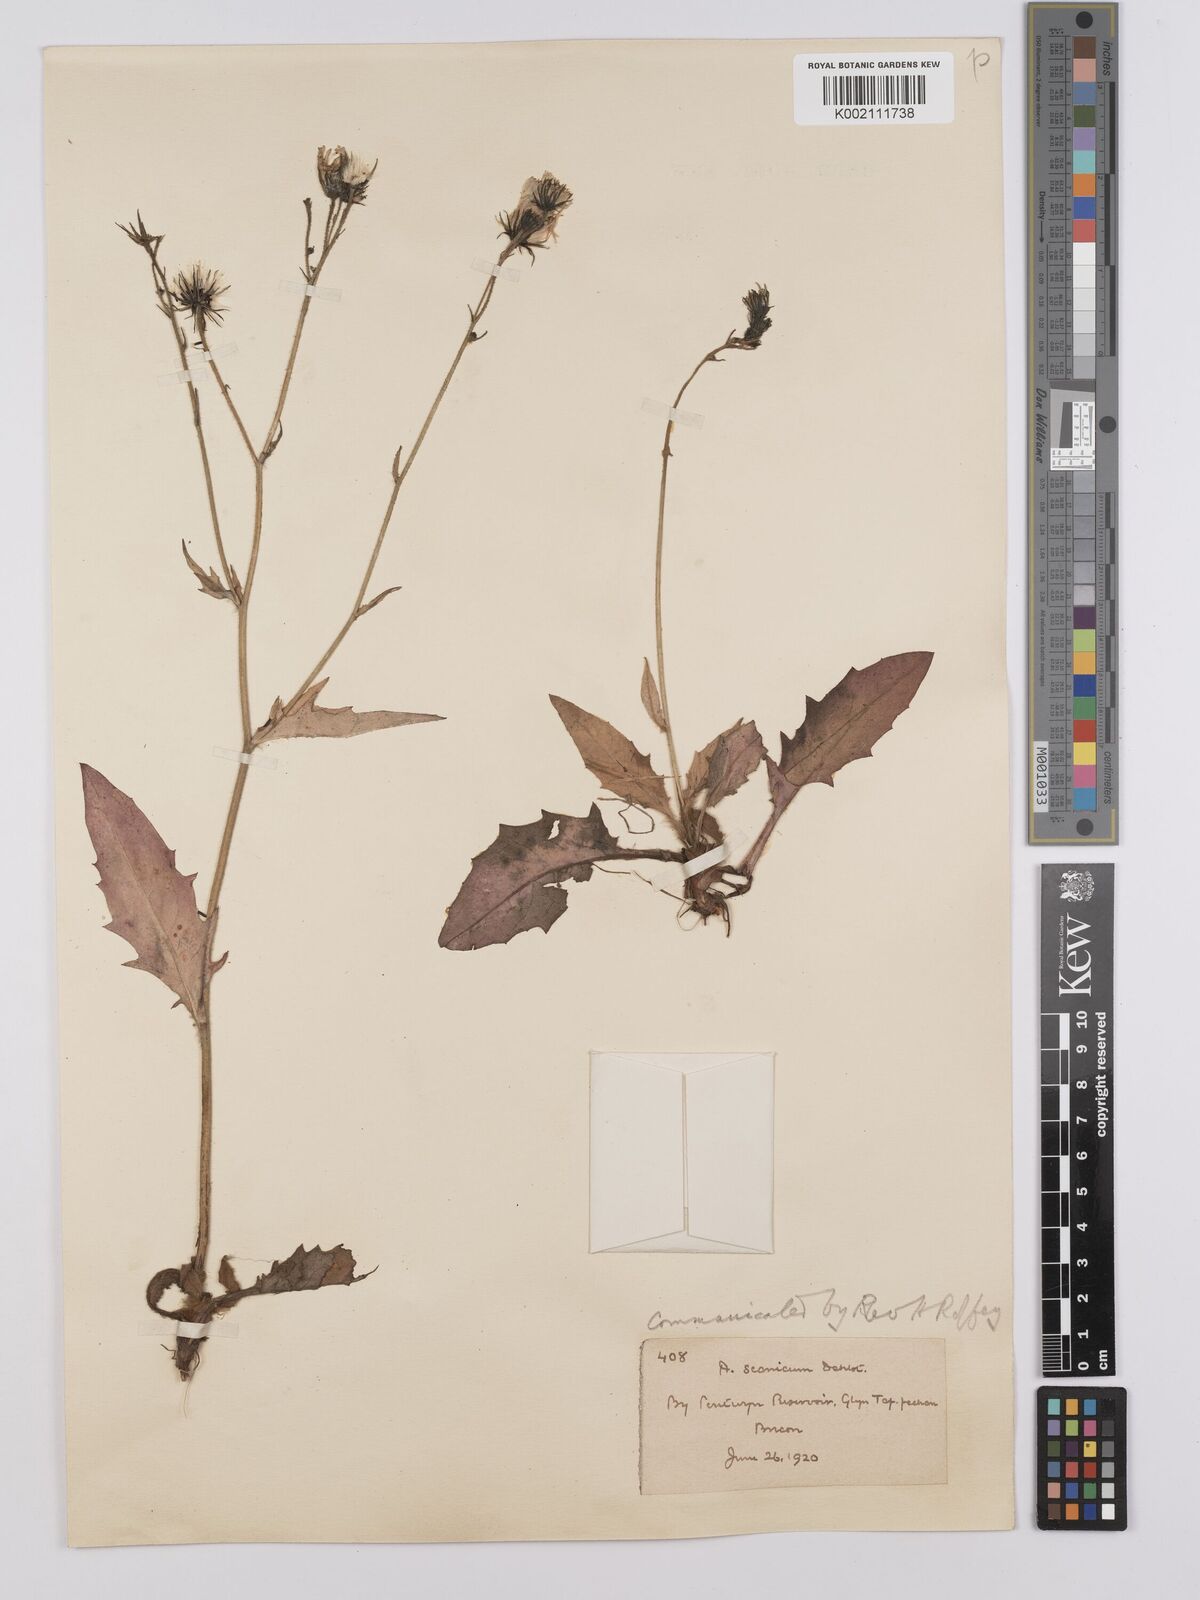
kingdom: Plantae
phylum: Tracheophyta
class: Magnoliopsida
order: Asterales
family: Asteraceae
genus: Hieracium
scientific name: Hieracium anglorum
